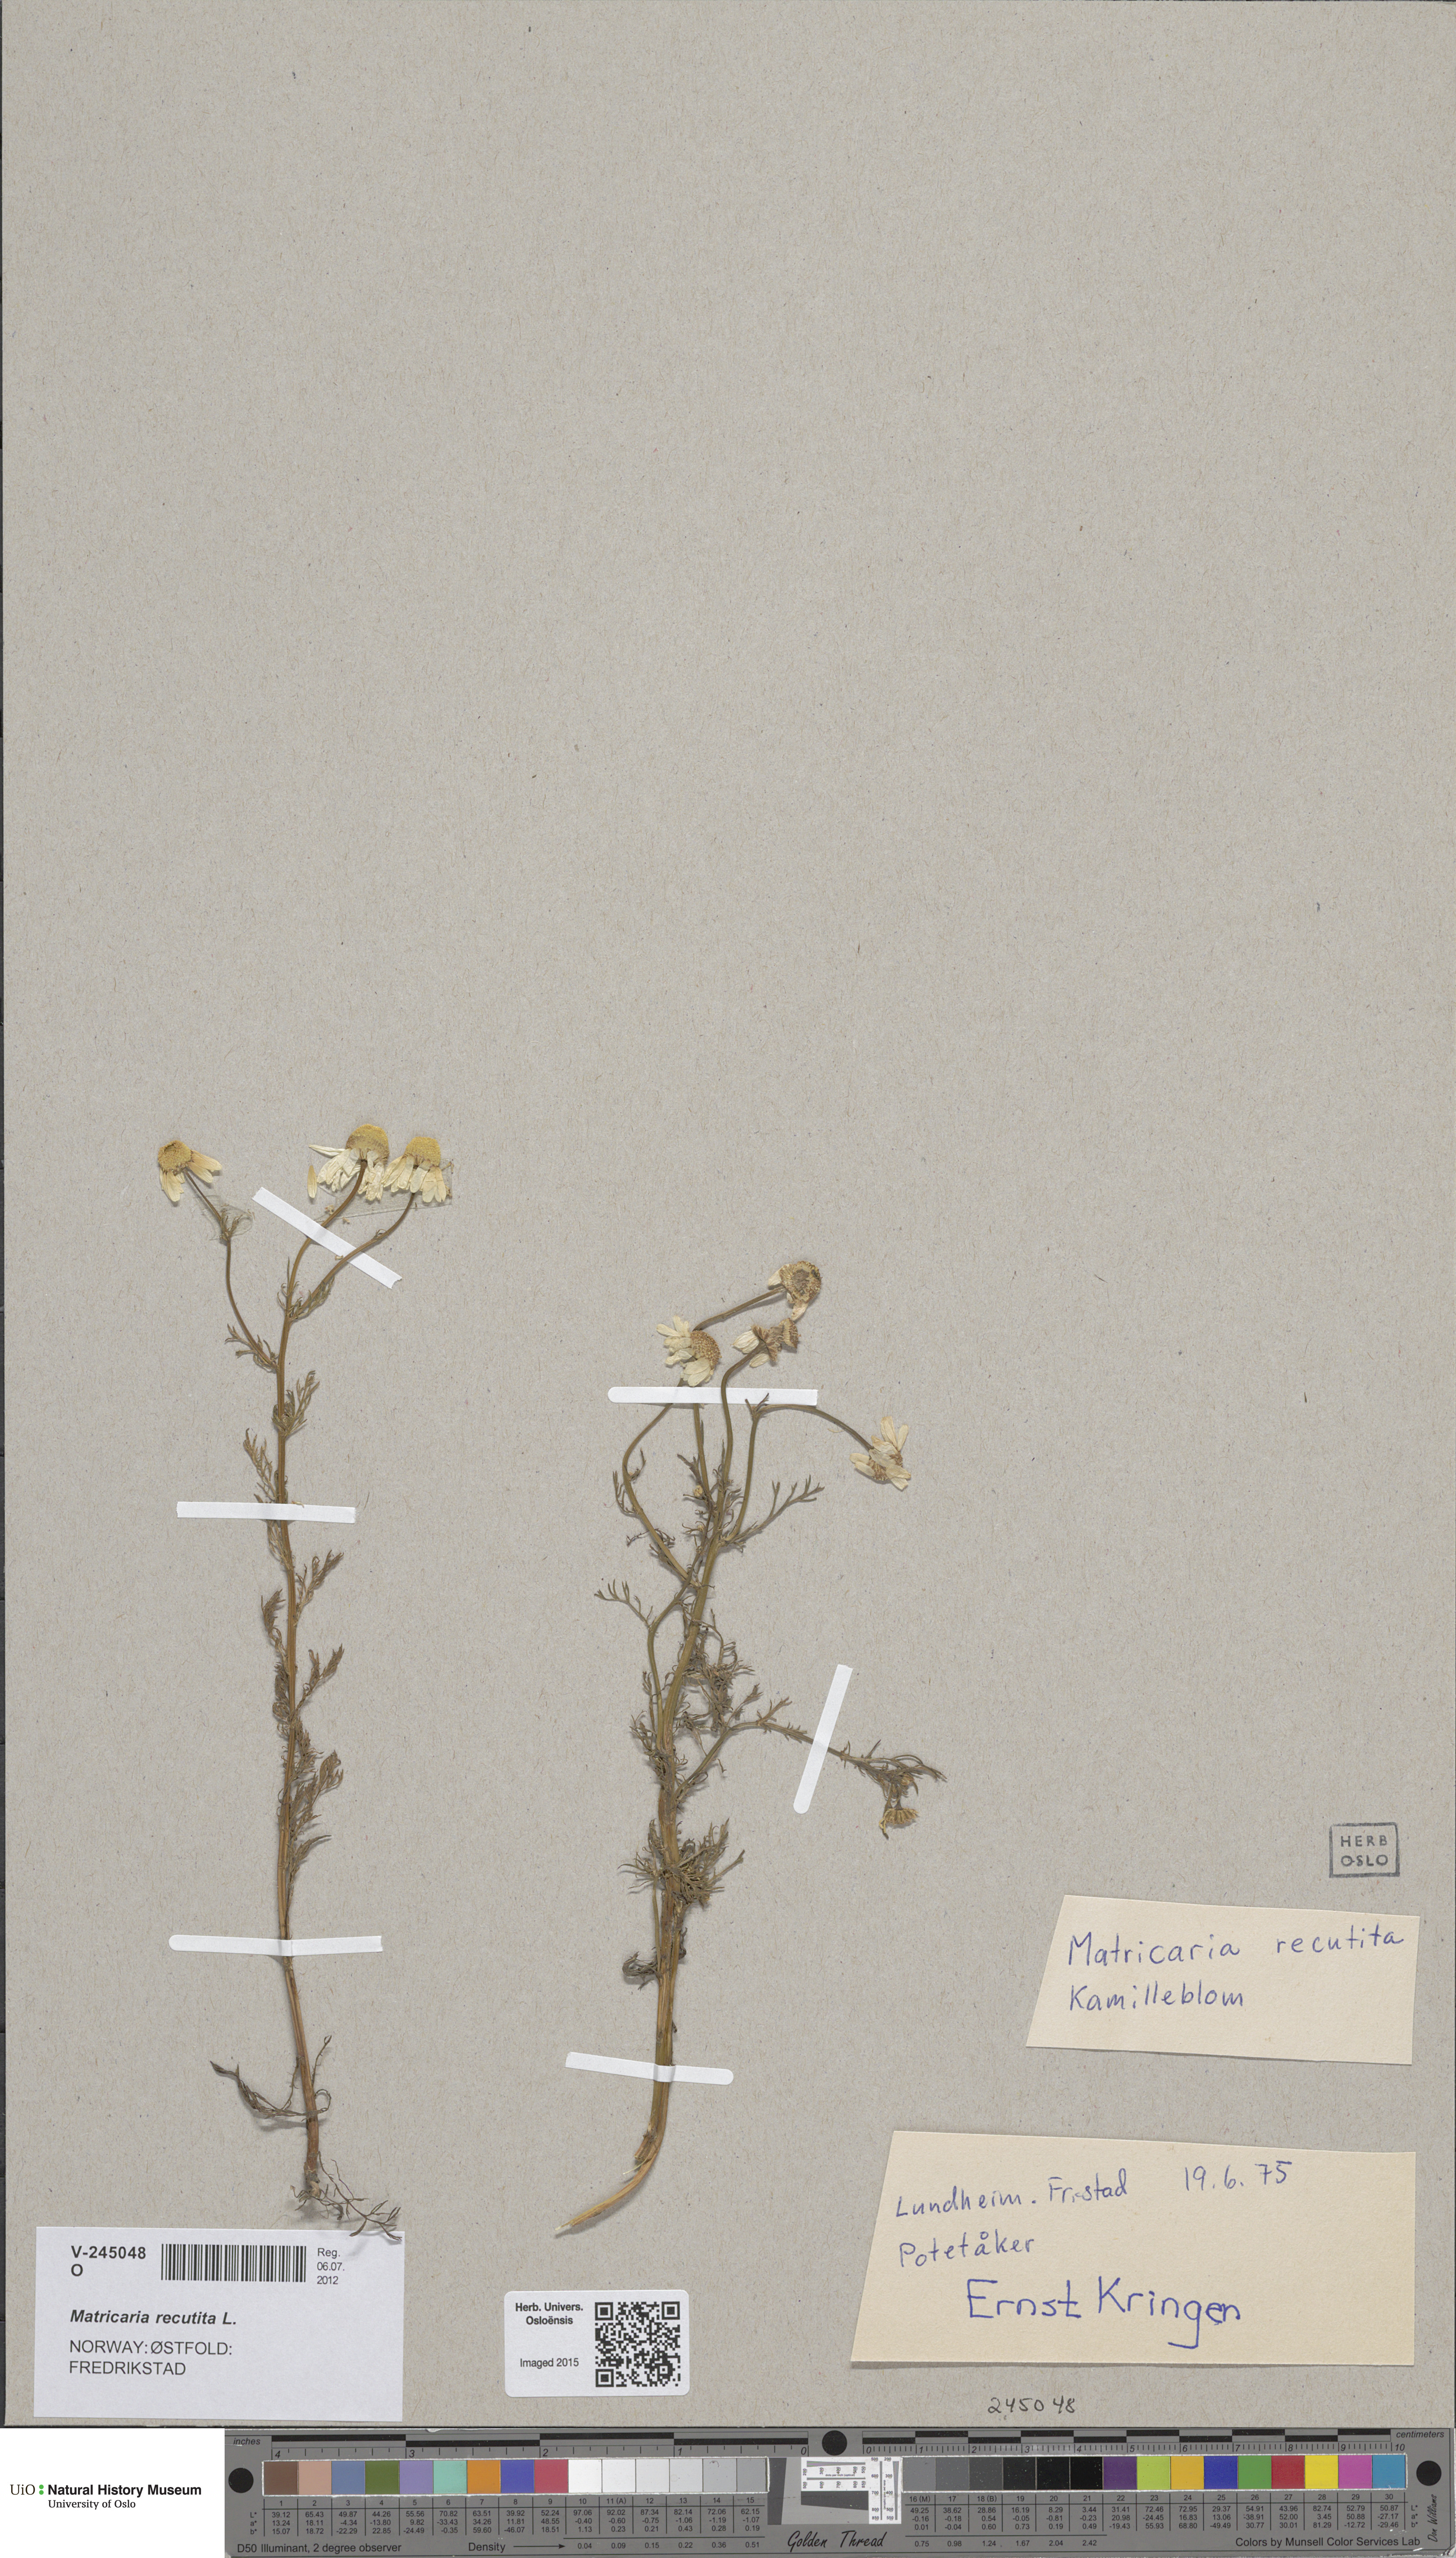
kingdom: Plantae
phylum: Tracheophyta
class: Magnoliopsida
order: Asterales
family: Asteraceae
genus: Matricaria
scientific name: Matricaria chamomilla
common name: Scented mayweed
